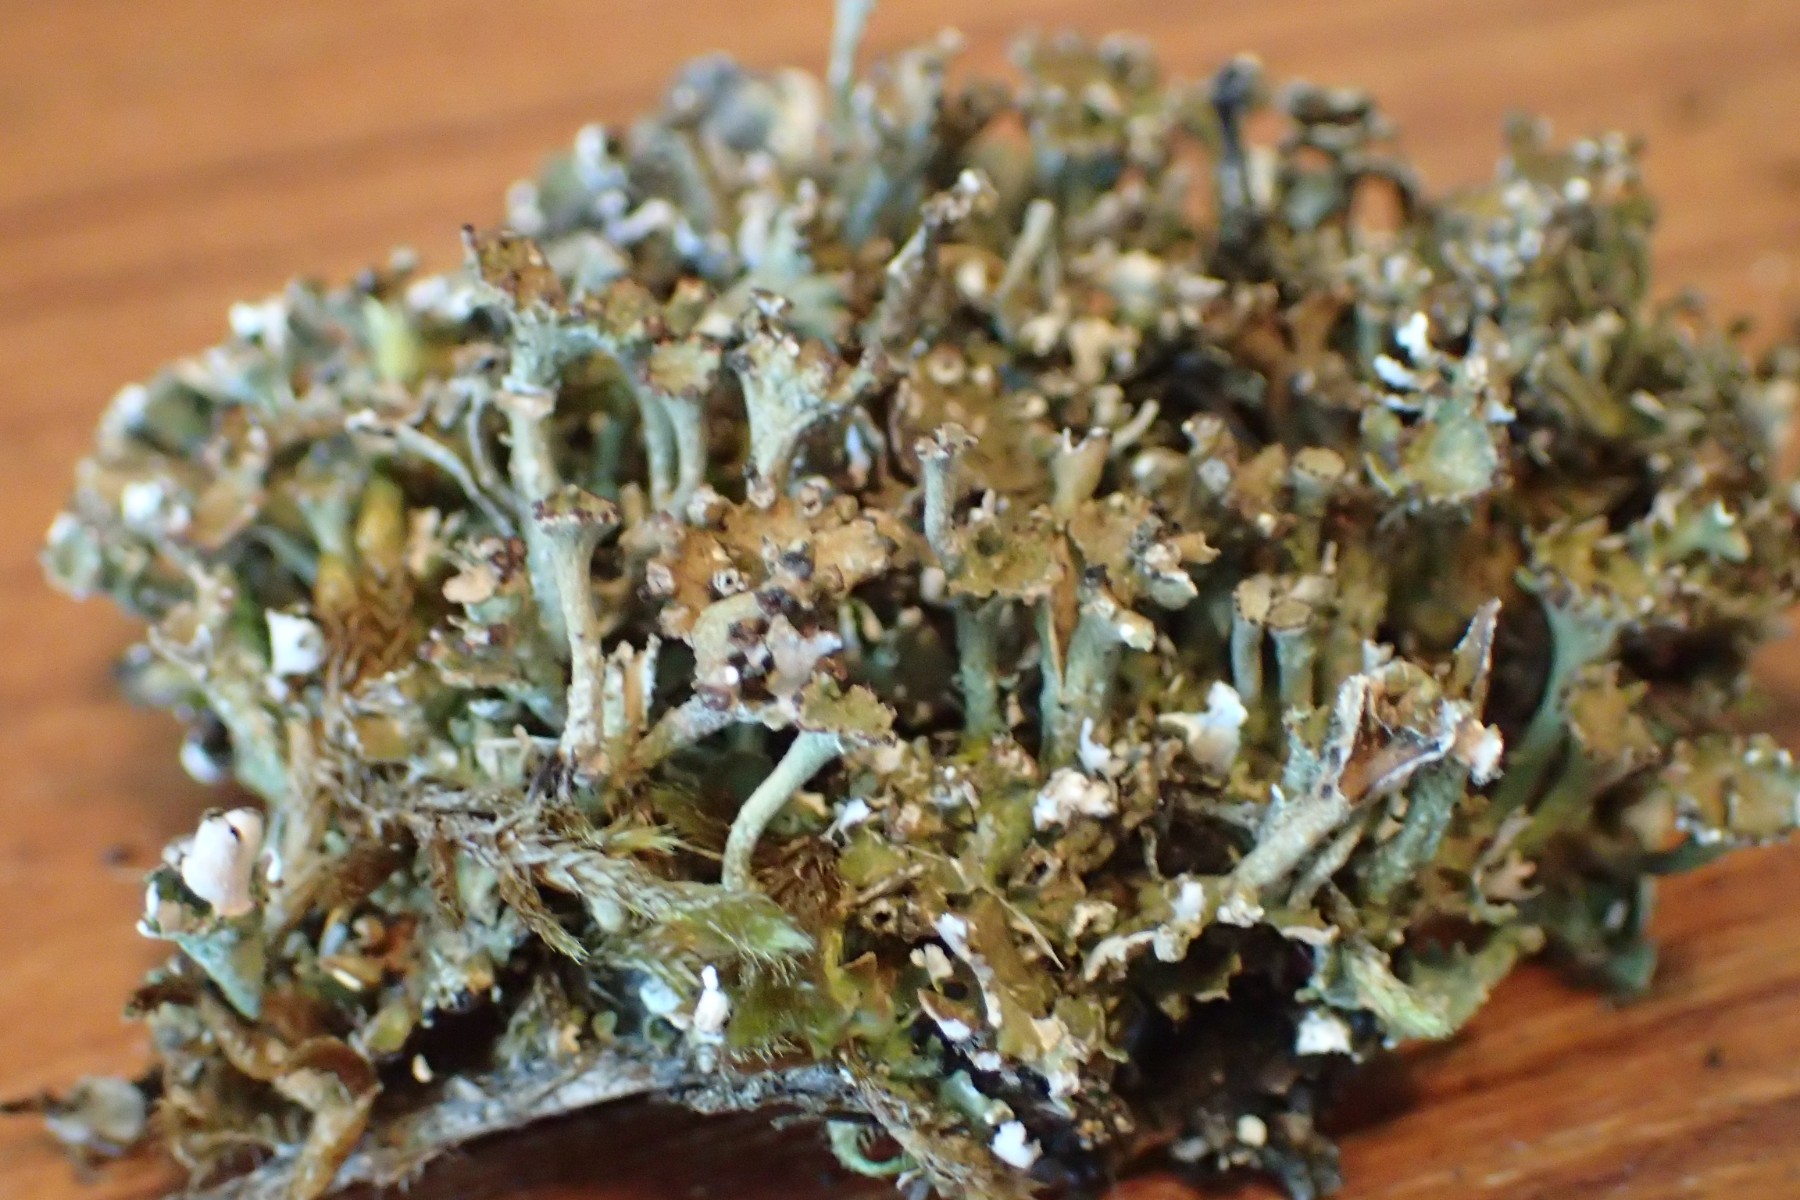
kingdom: Fungi
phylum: Ascomycota
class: Lecanoromycetes
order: Lecanorales
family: Cladoniaceae
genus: Cladonia
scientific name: Cladonia cervicornis
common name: gevir-bægerlav
